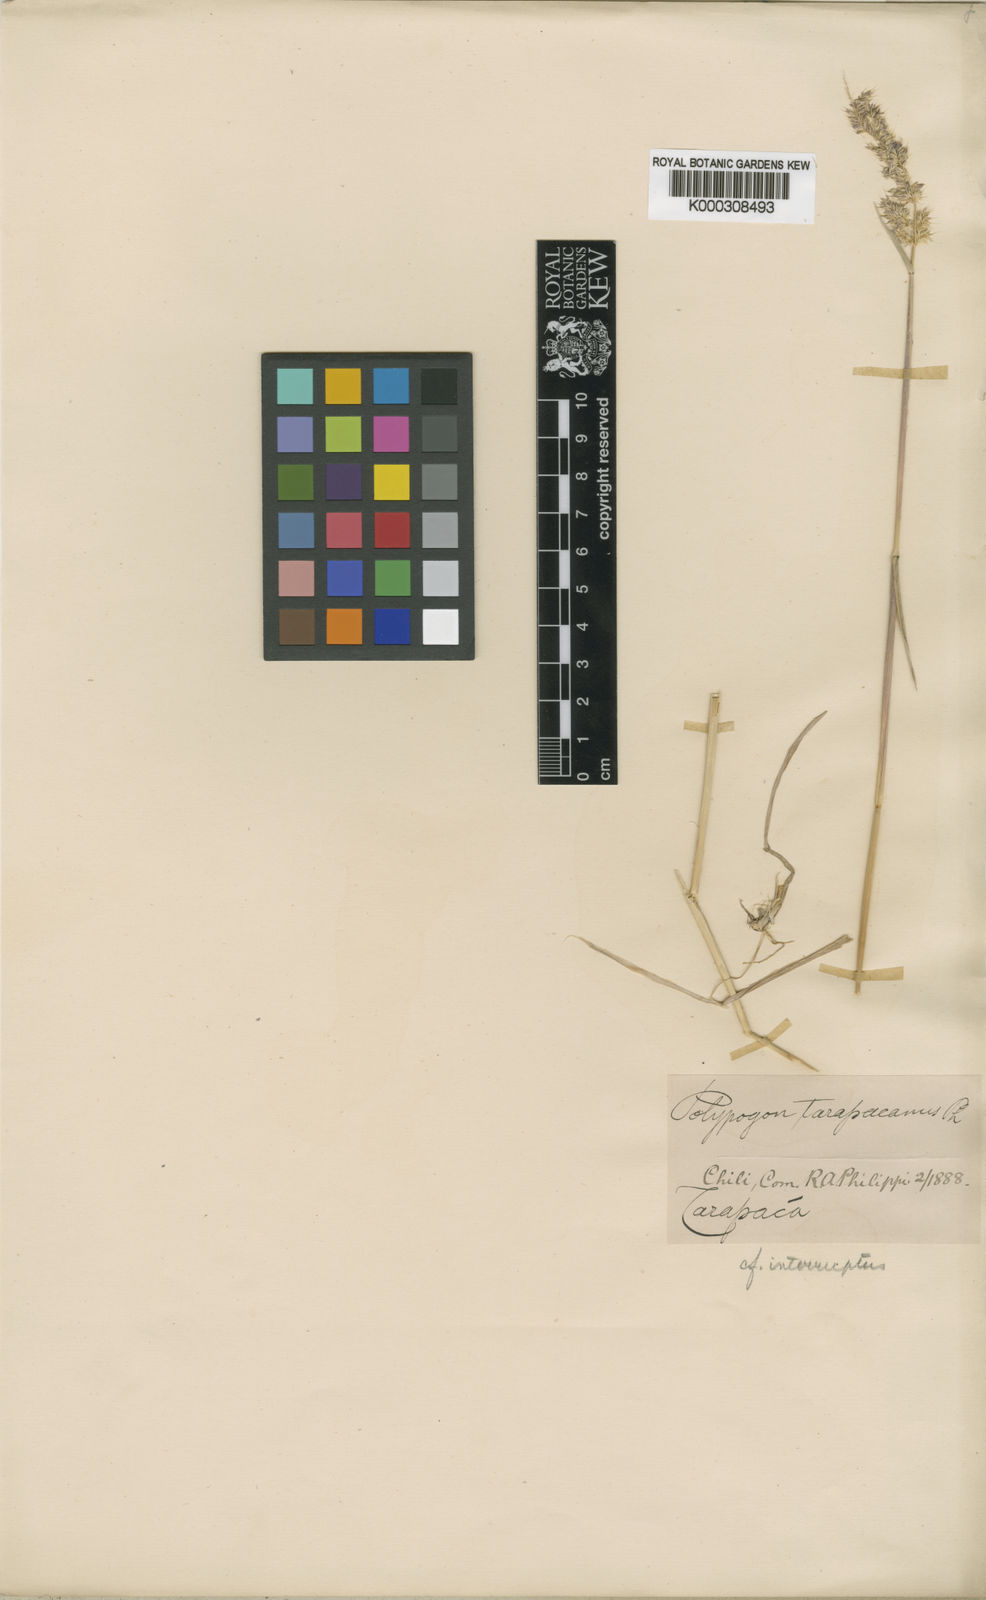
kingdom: Plantae
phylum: Tracheophyta
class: Liliopsida
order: Poales
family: Poaceae
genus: Polypogon
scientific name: Polypogon
